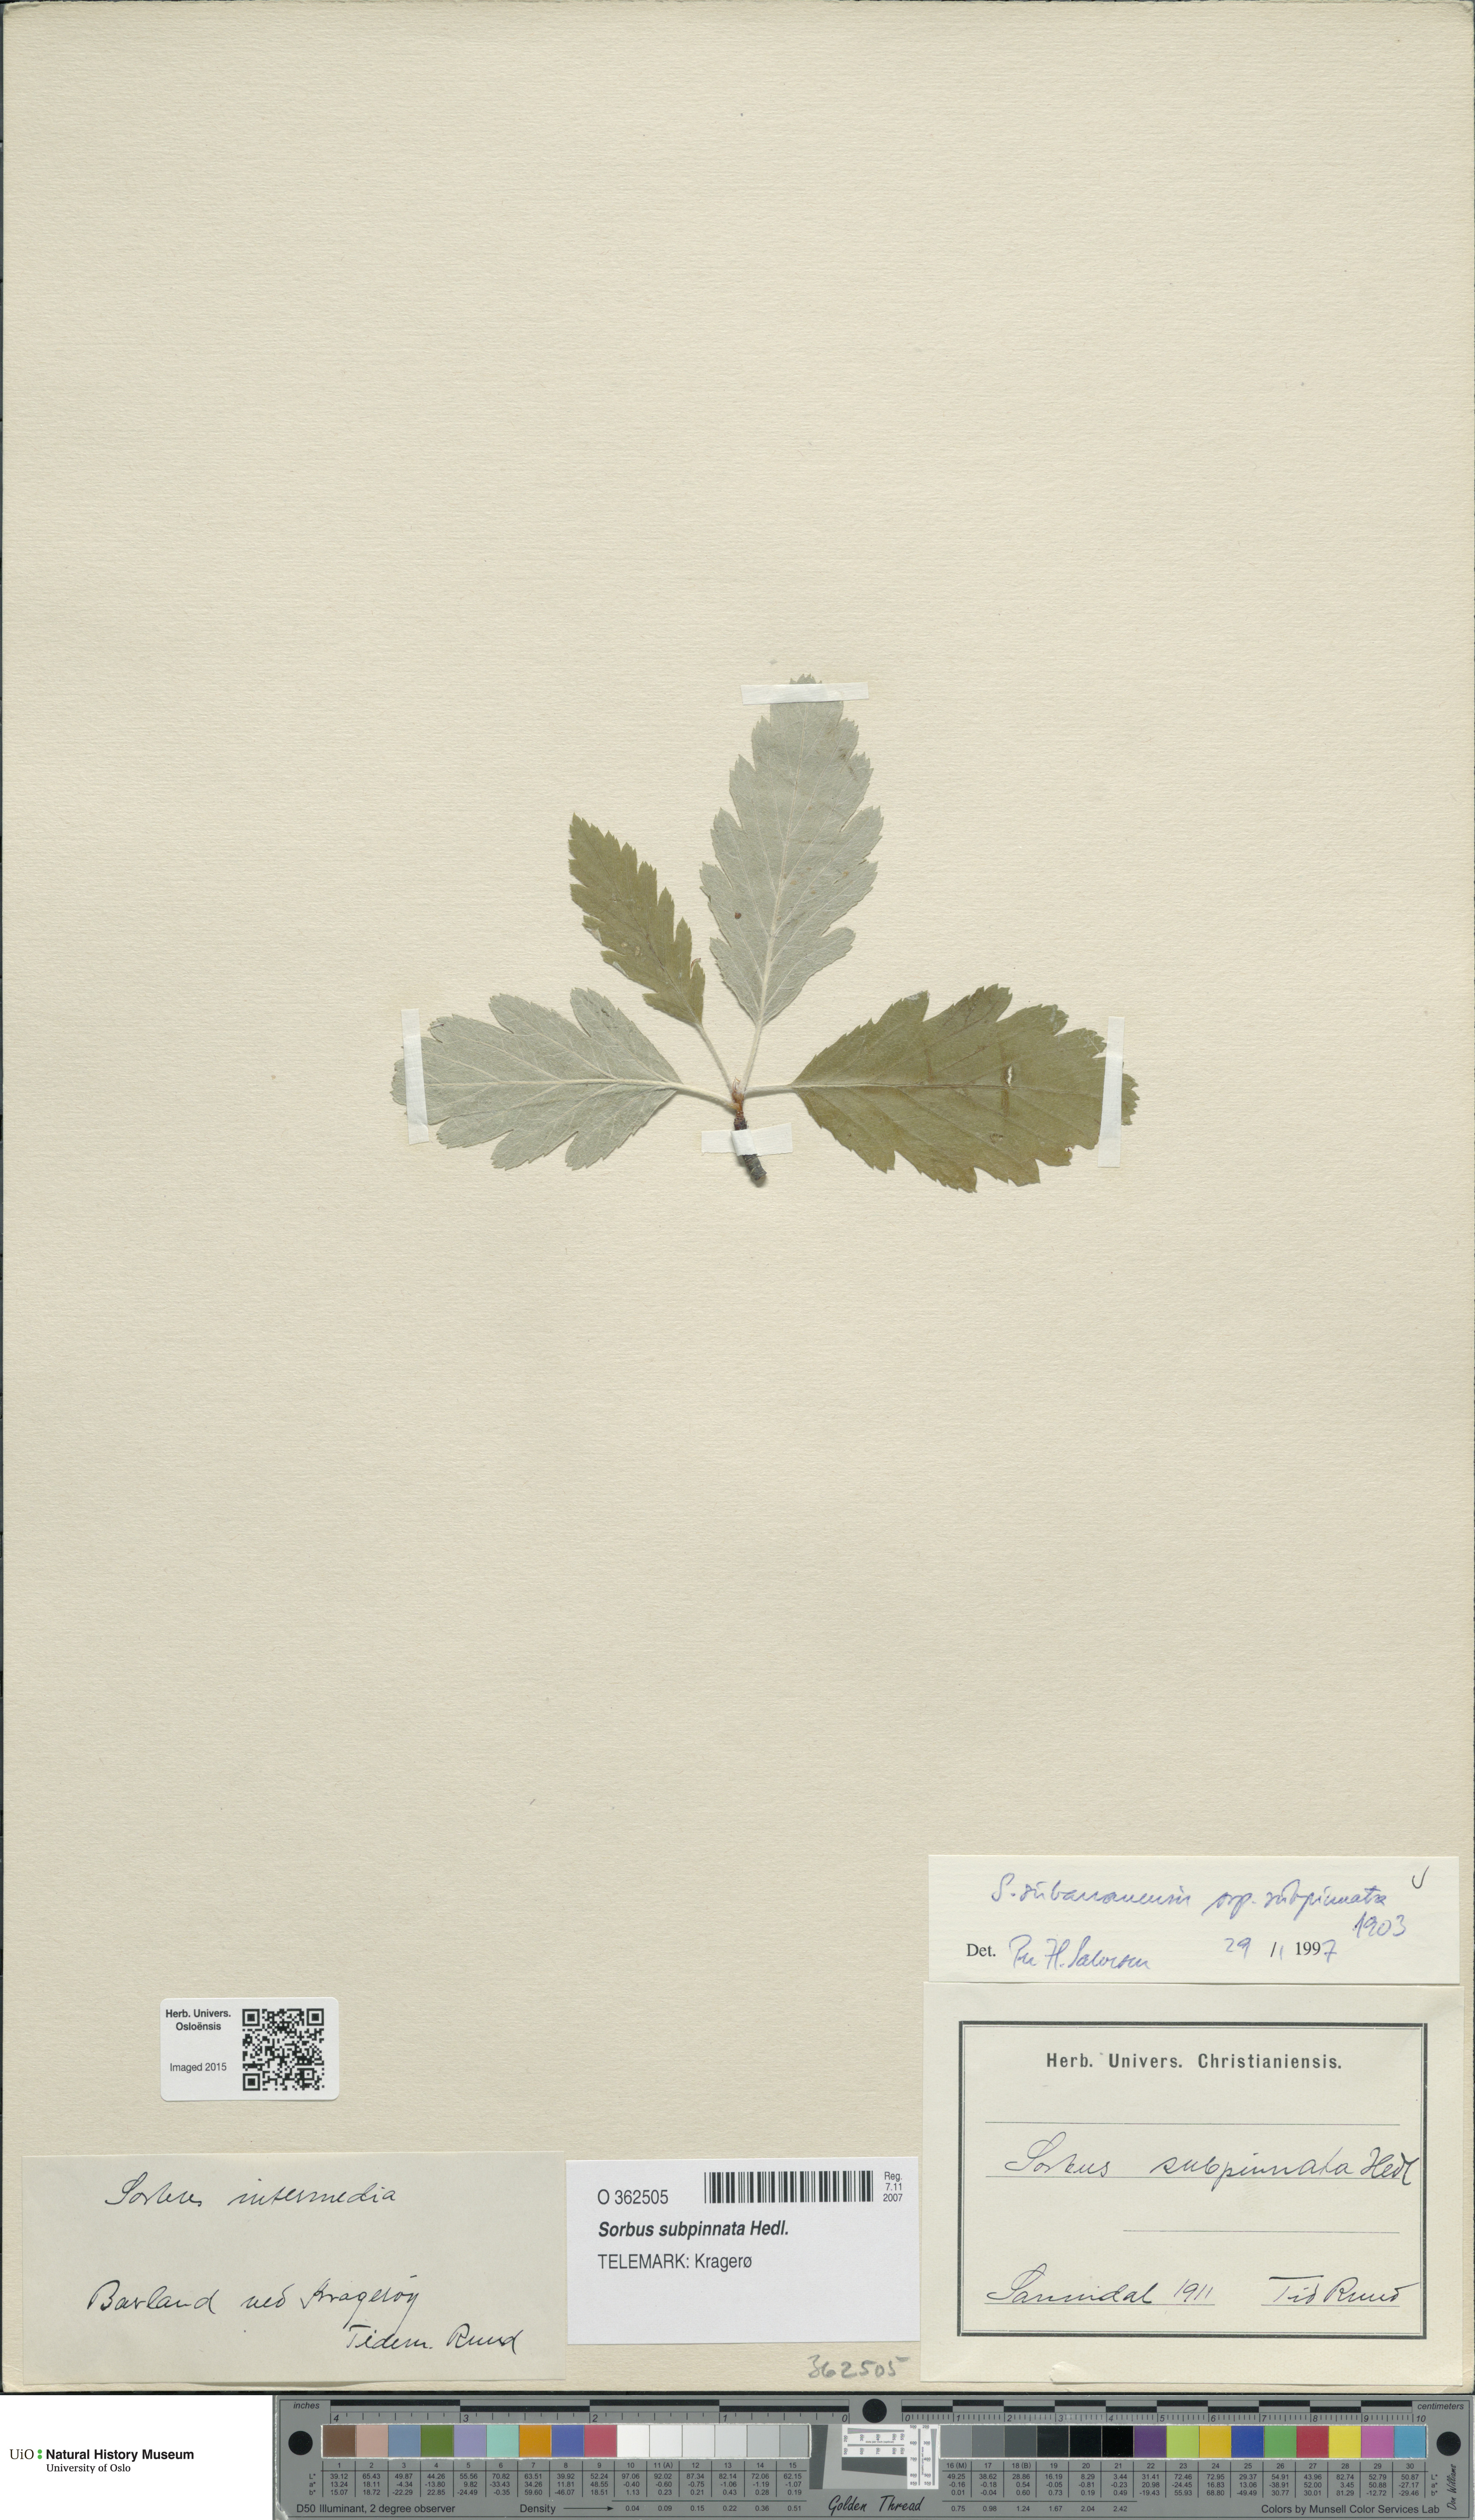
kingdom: Plantae
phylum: Tracheophyta
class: Magnoliopsida
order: Rosales
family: Rosaceae
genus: Hedlundia
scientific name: Hedlundia subpinnata
